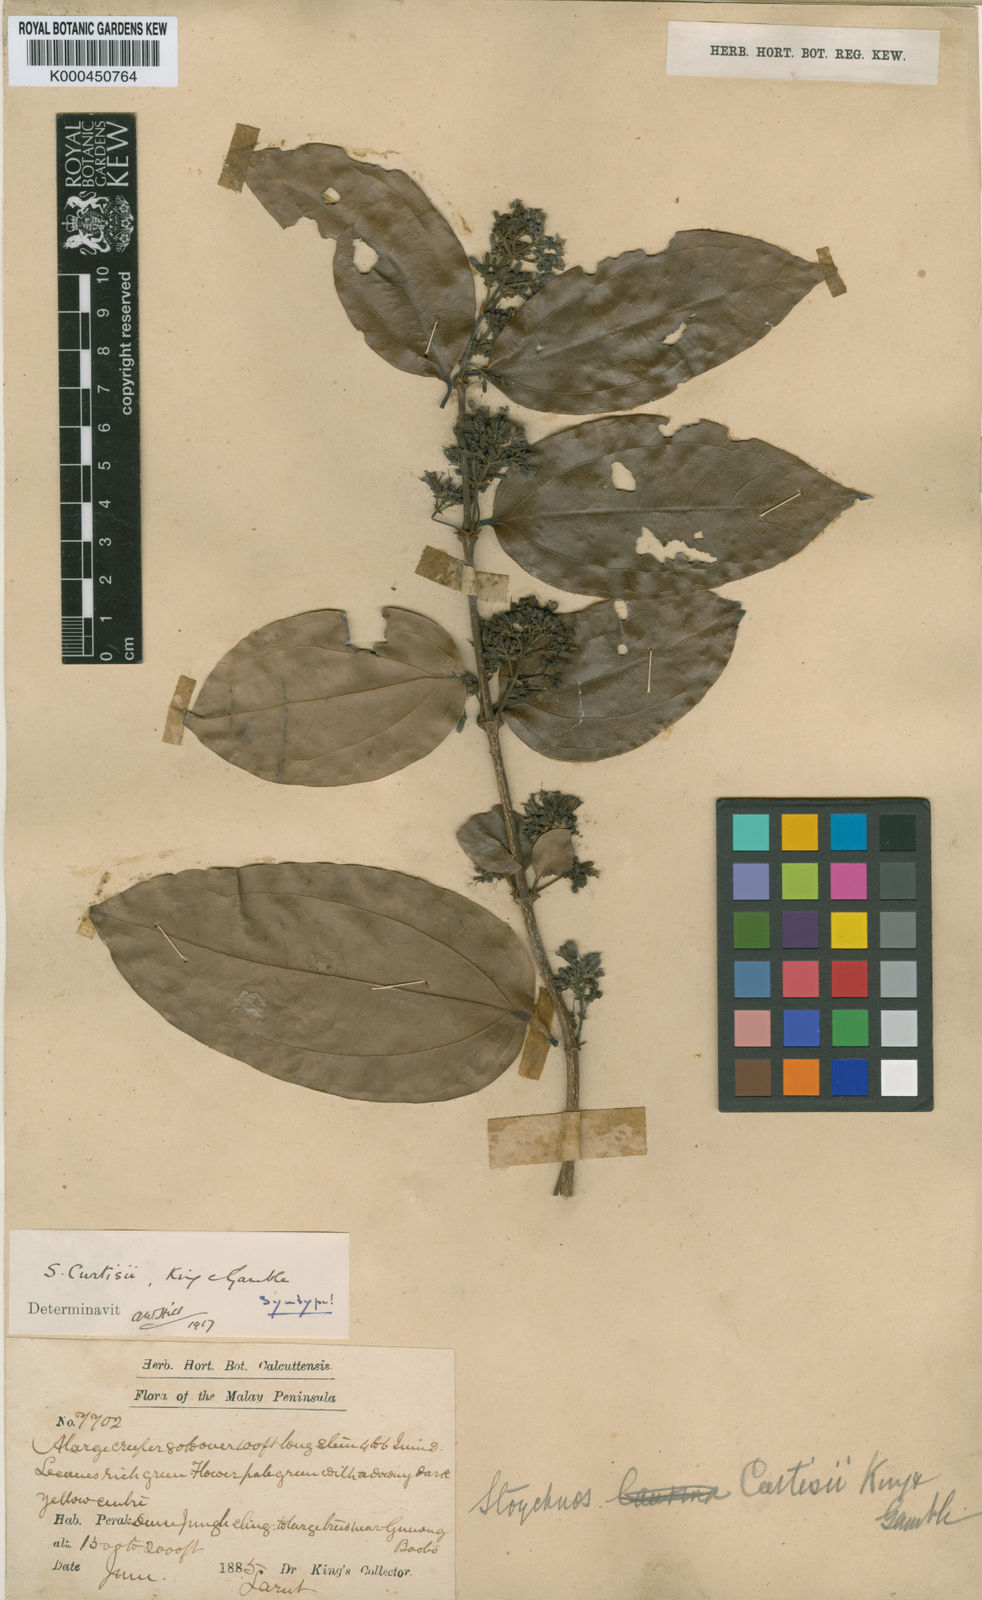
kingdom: Plantae
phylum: Tracheophyta
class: Magnoliopsida
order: Gentianales
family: Loganiaceae
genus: Strychnos
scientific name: Strychnos curtisii
